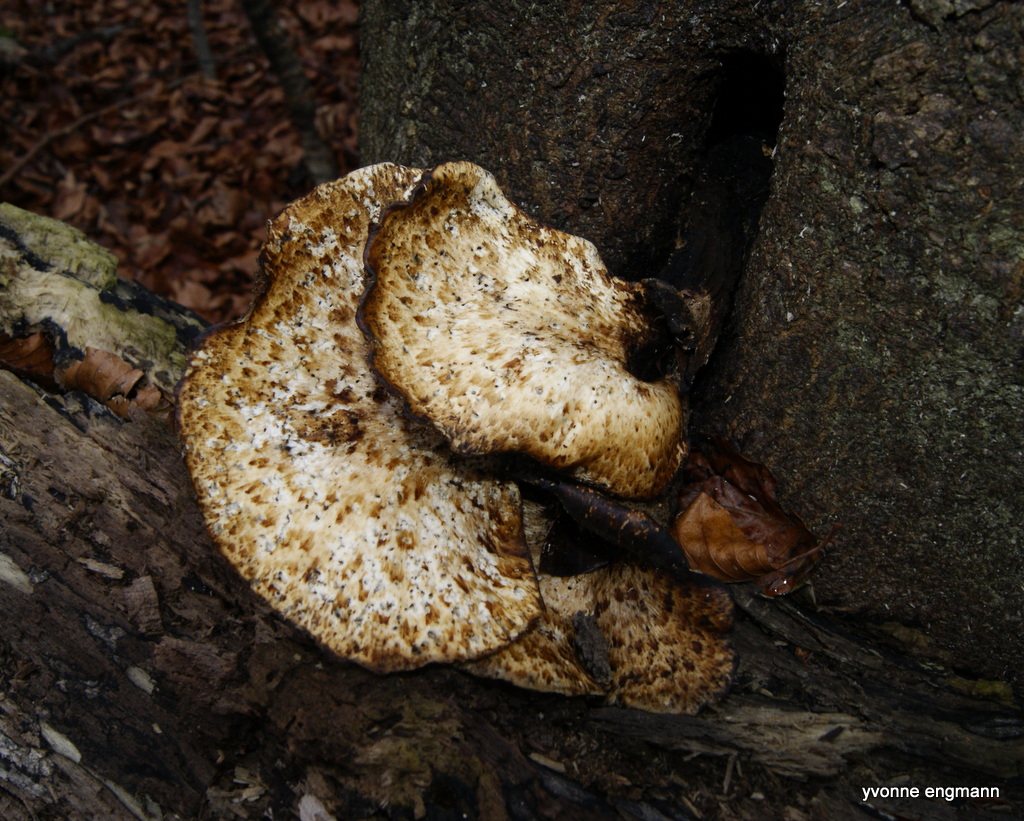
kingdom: Fungi
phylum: Basidiomycota
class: Agaricomycetes
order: Polyporales
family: Polyporaceae
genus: Cerioporus
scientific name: Cerioporus squamosus
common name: skællet stilkporesvamp
